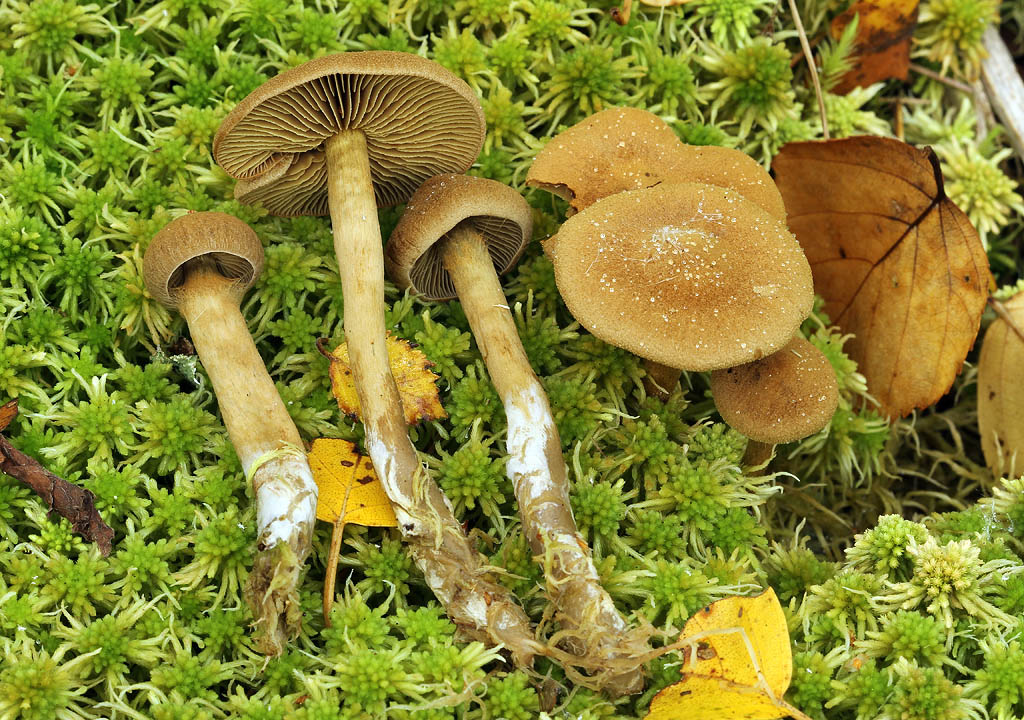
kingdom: Fungi
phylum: Basidiomycota
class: Agaricomycetes
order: Agaricales
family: Cortinariaceae
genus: Cortinarius
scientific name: Cortinarius chrysolitus
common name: tørve-slørhat
